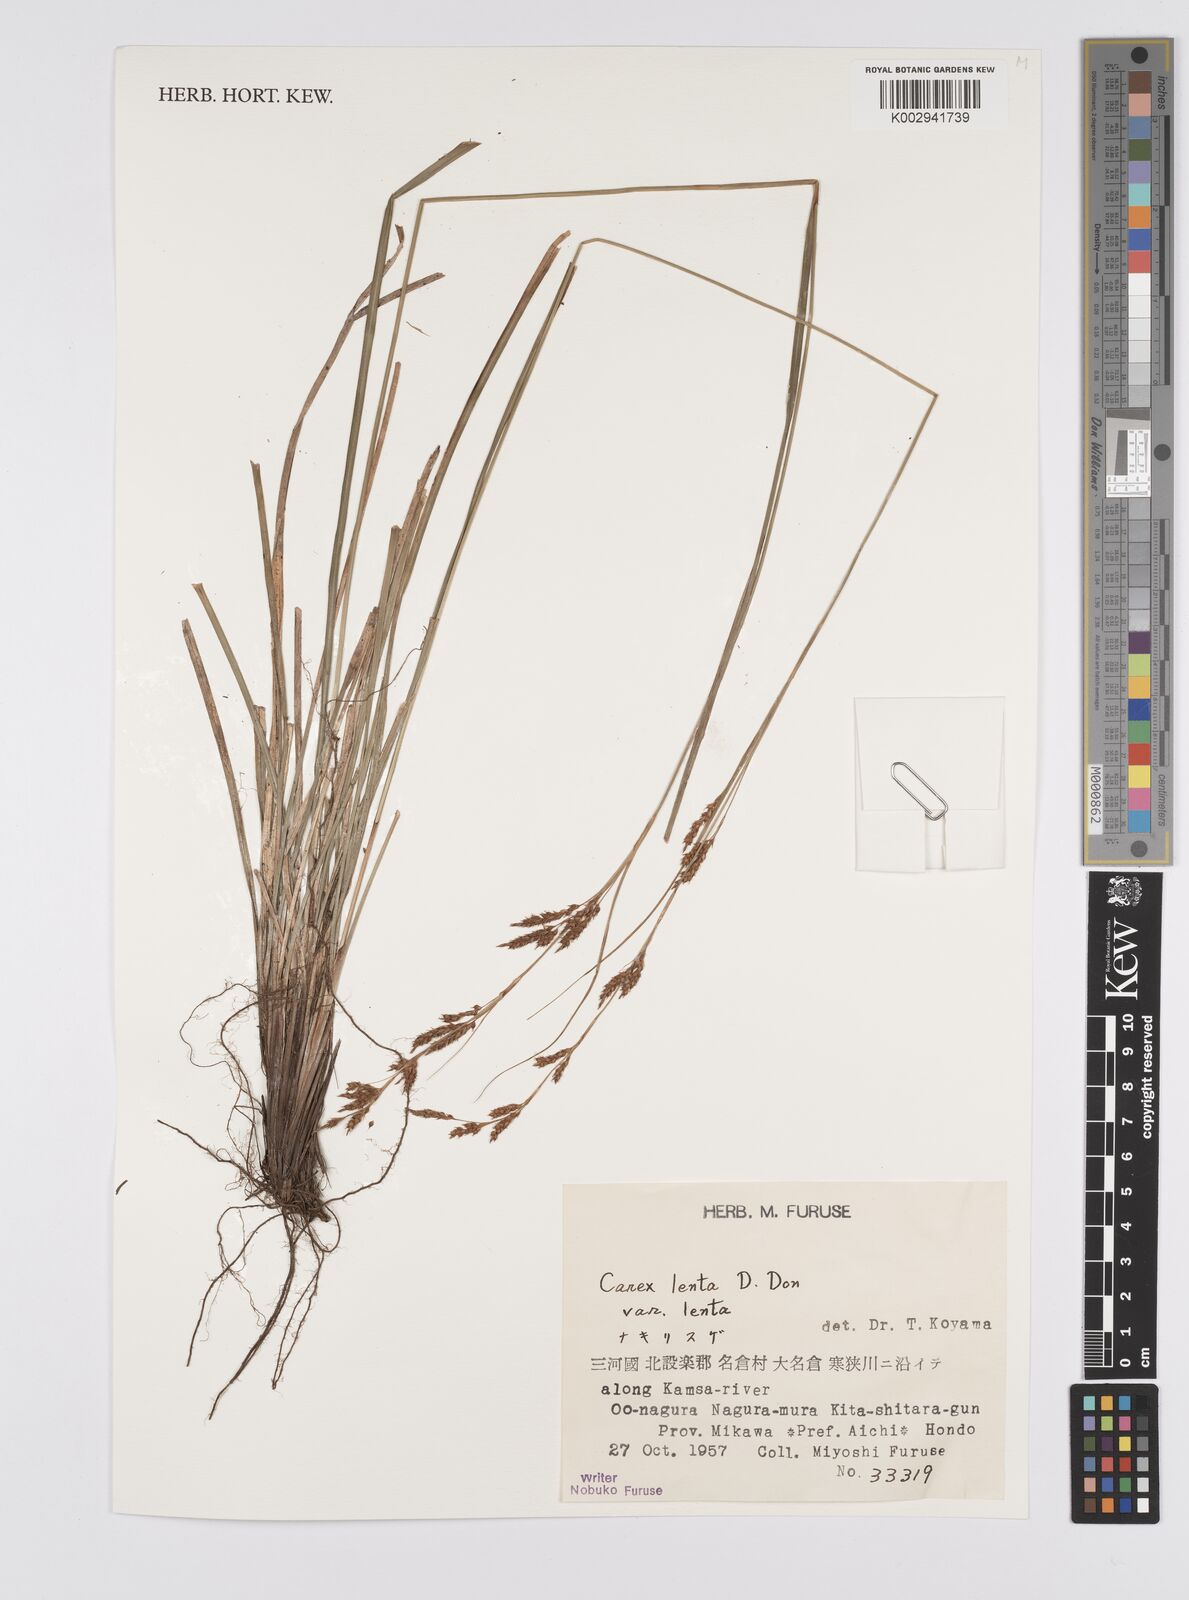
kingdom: Plantae
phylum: Tracheophyta
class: Liliopsida
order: Poales
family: Cyperaceae
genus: Carex
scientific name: Carex brunnea
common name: Greater brown sedge
